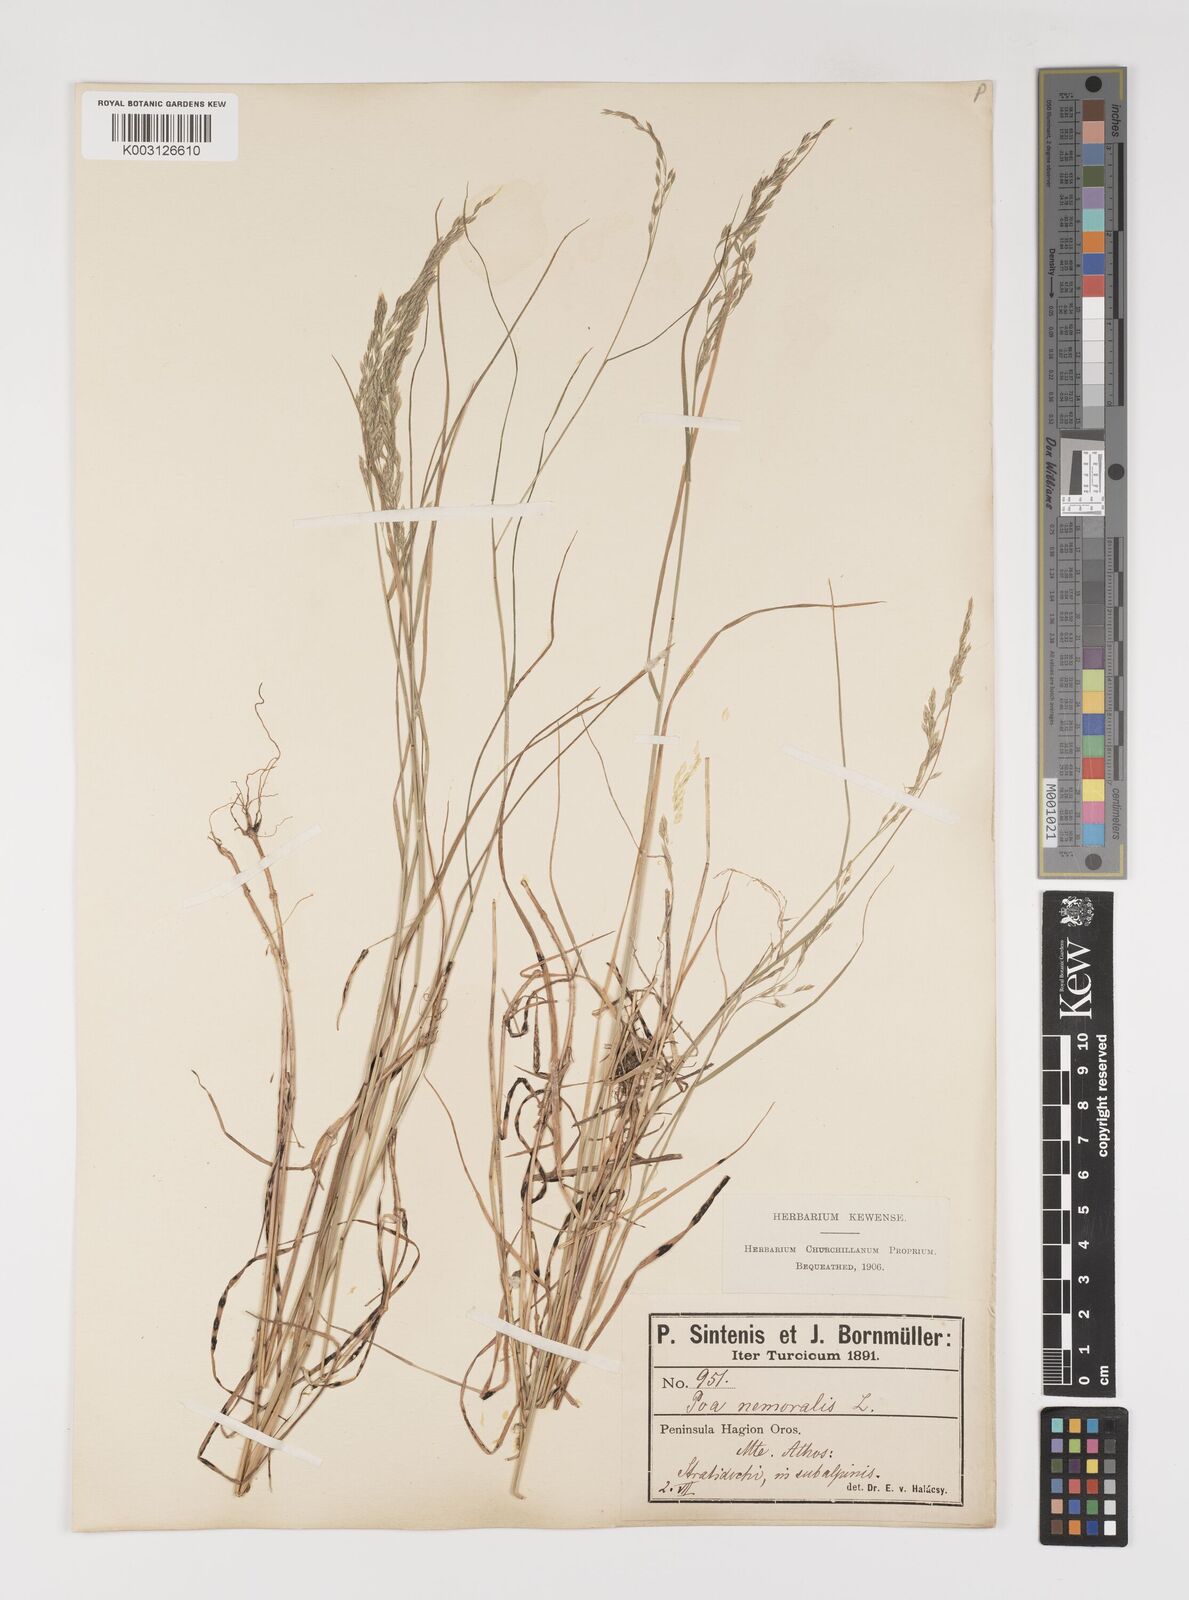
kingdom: Plantae
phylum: Tracheophyta
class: Liliopsida
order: Poales
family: Poaceae
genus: Poa
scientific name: Poa nemoralis
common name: Wood bluegrass
